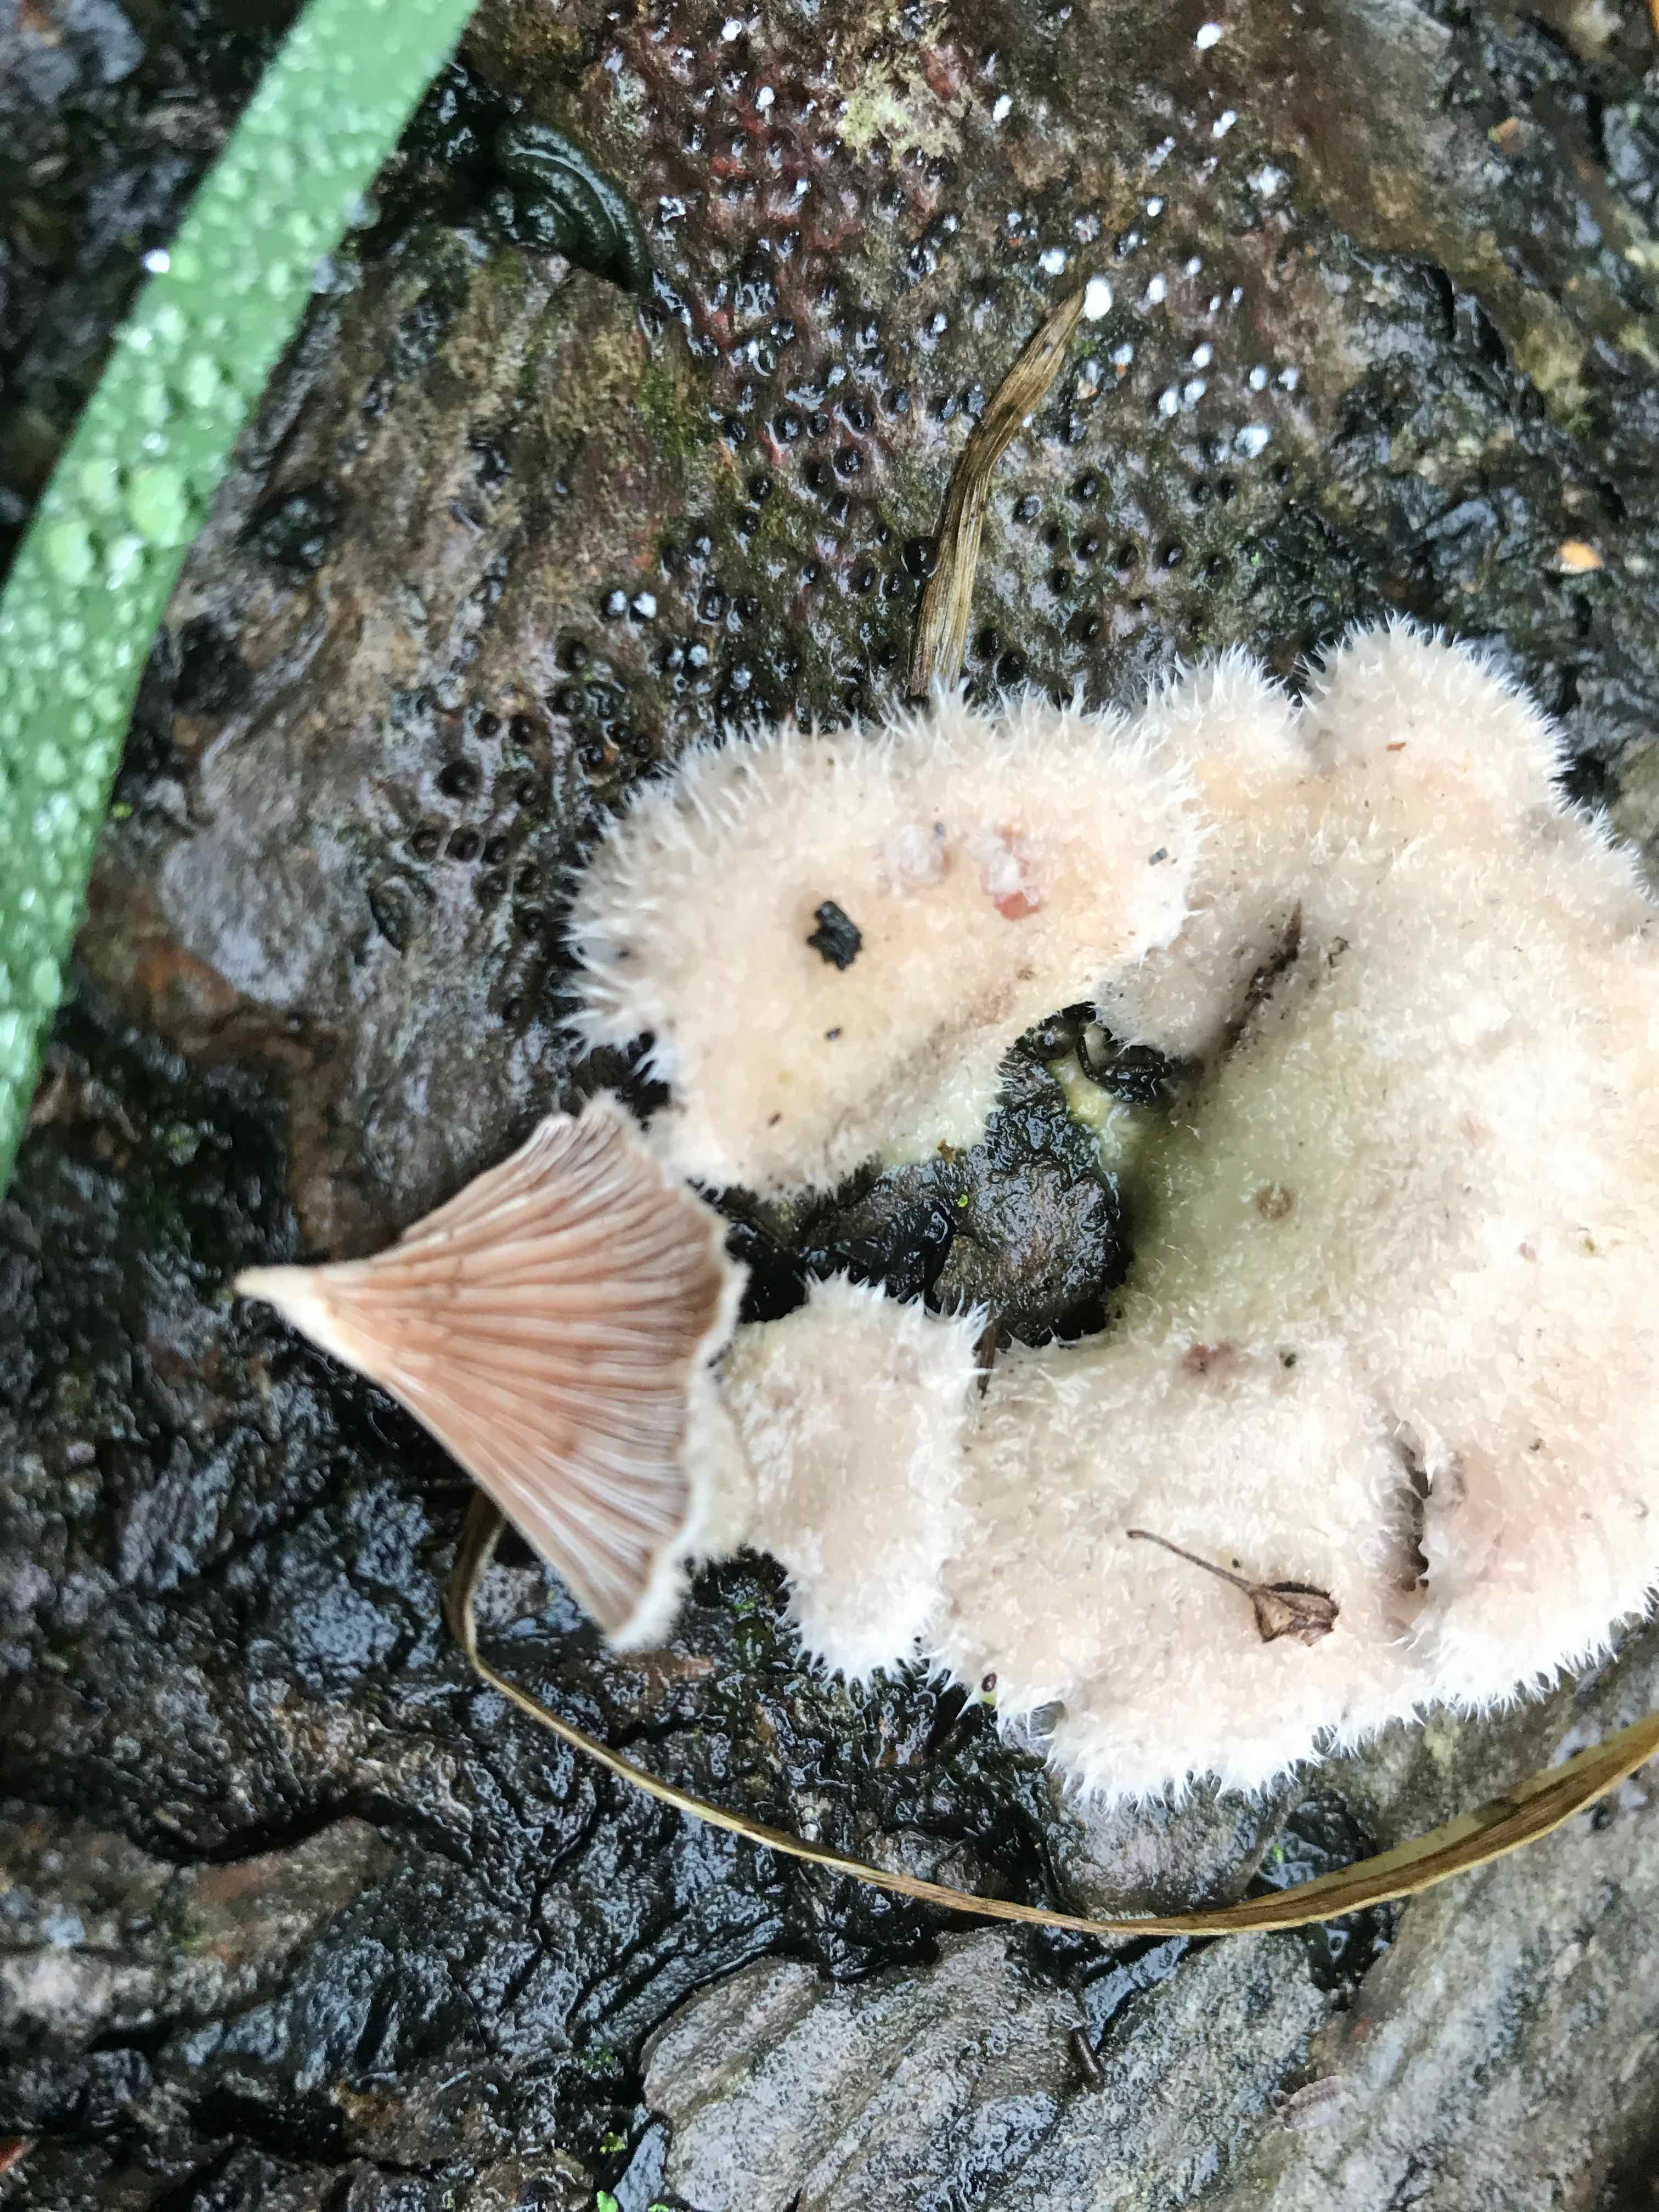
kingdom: Fungi
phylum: Basidiomycota
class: Agaricomycetes
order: Agaricales
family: Schizophyllaceae
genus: Schizophyllum
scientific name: Schizophyllum commune
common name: kløvblad
